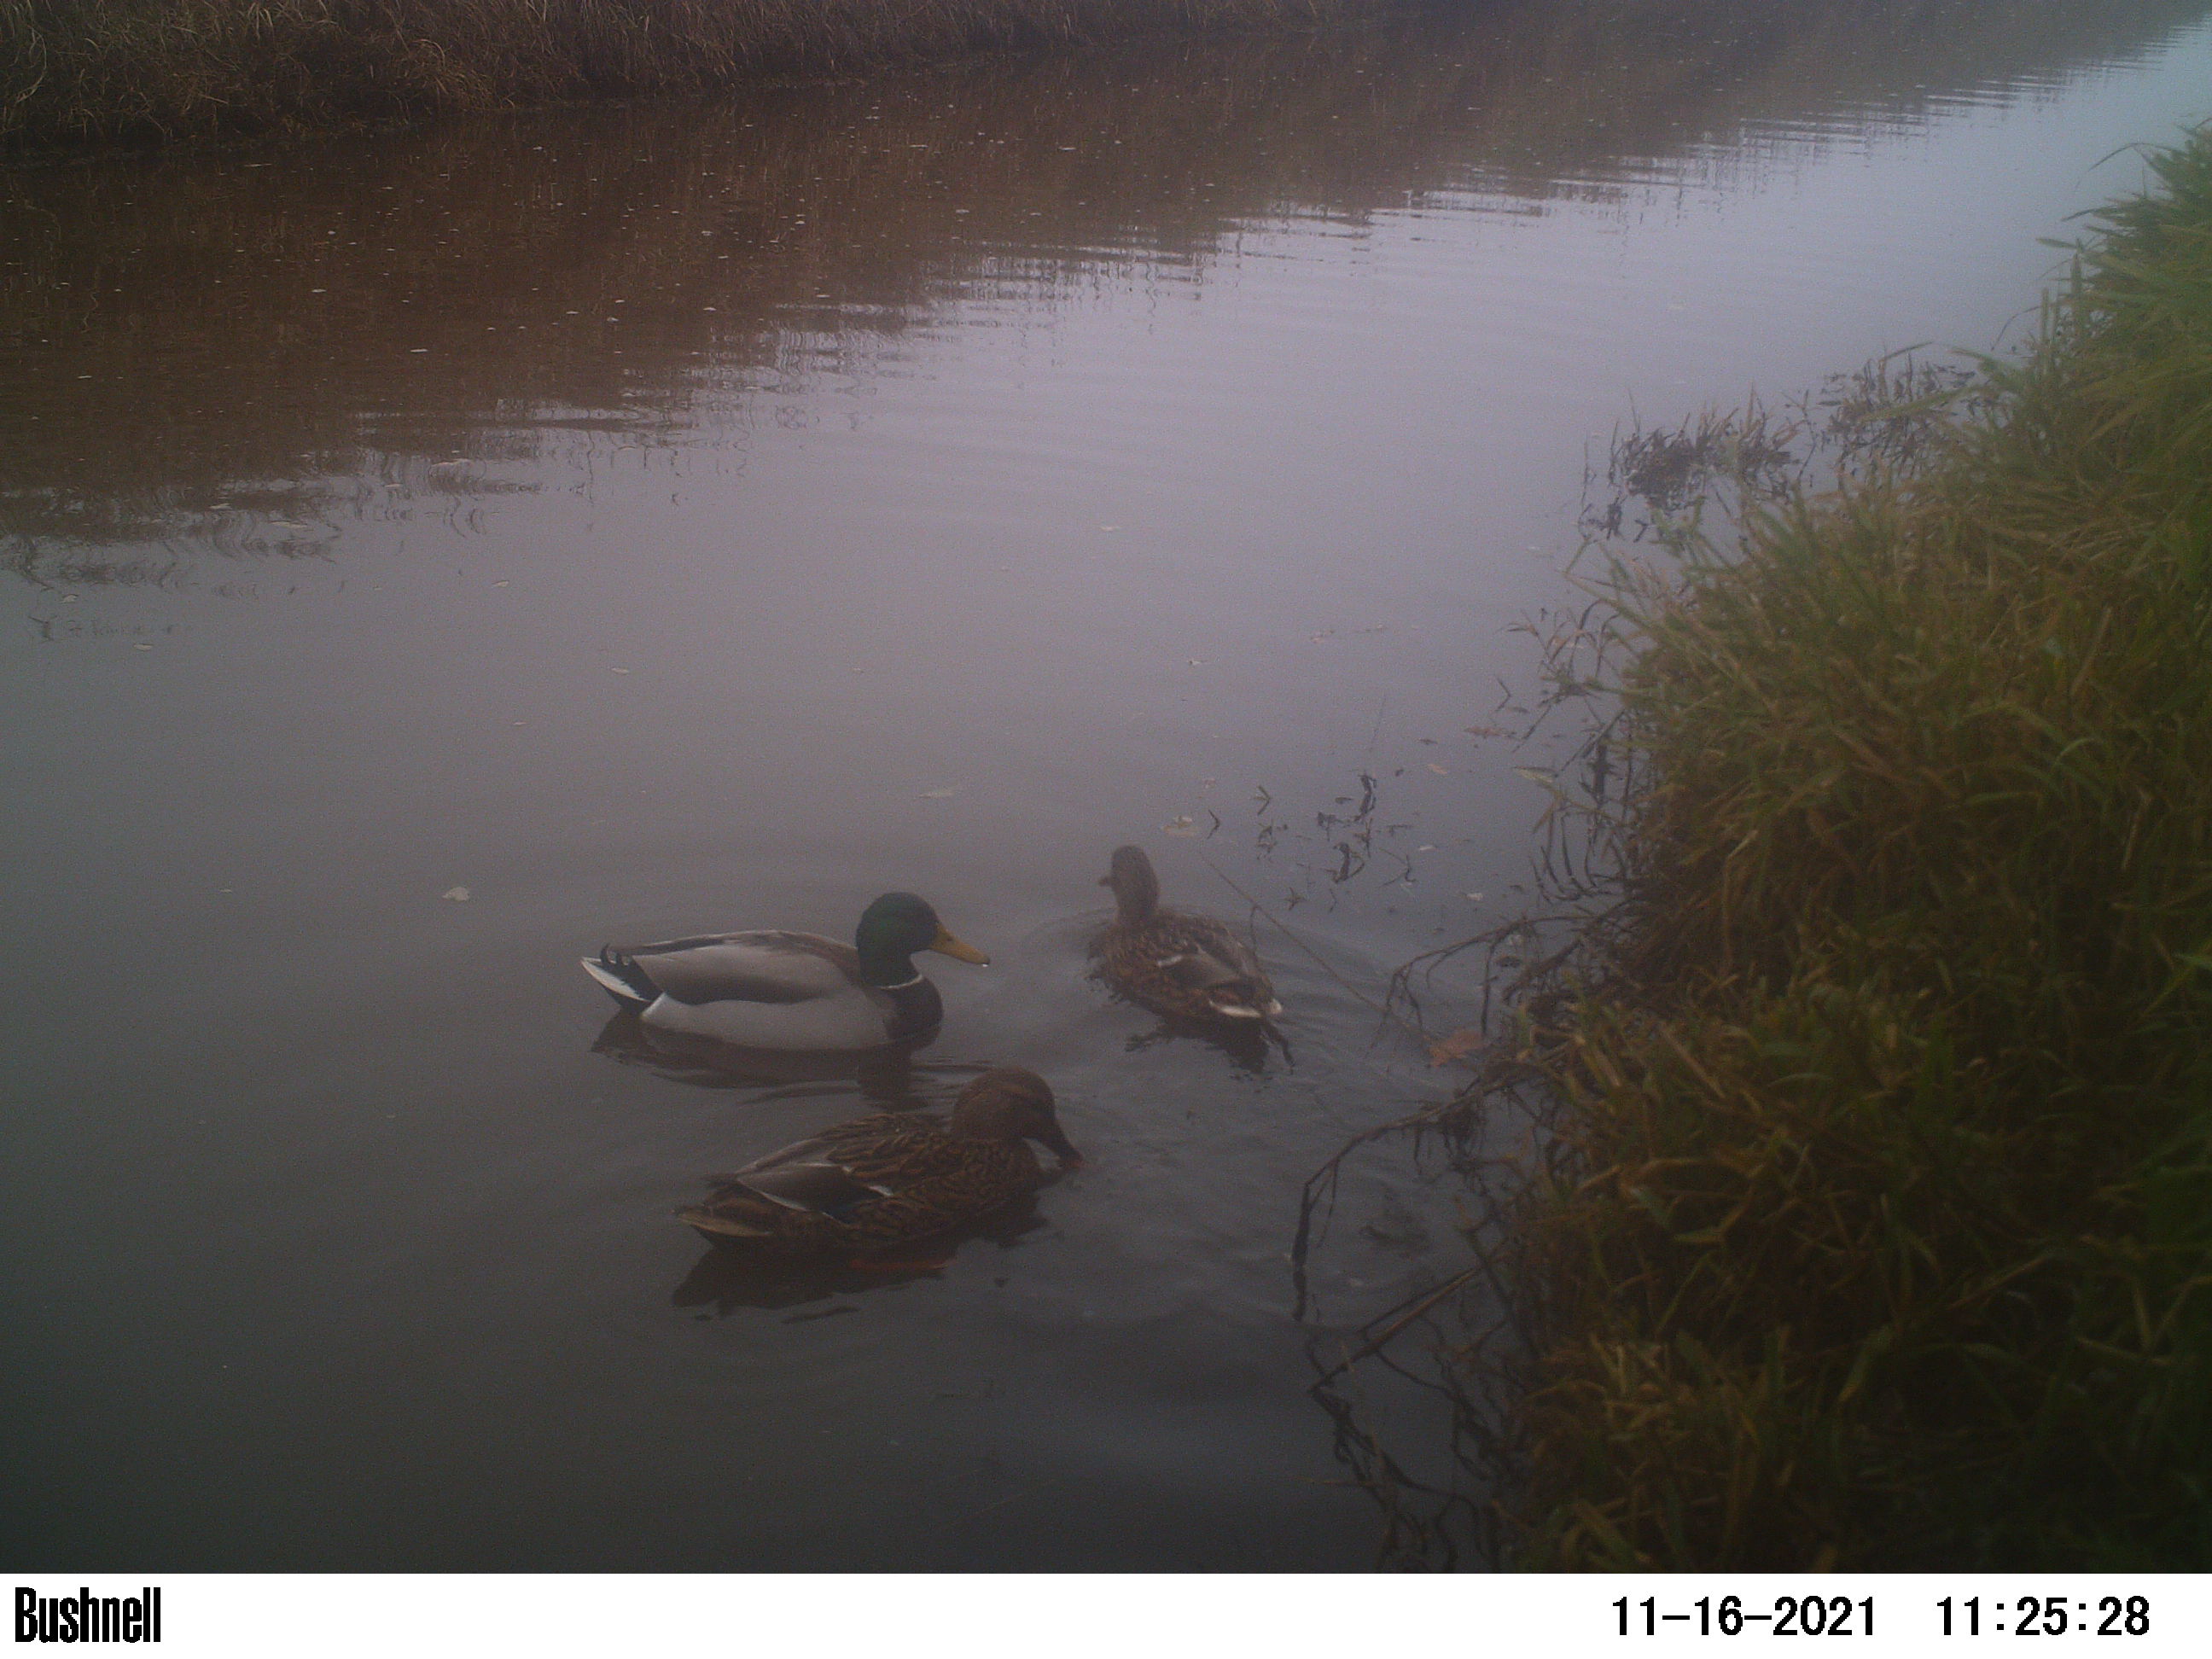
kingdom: Animalia
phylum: Chordata
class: Aves
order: Anseriformes
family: Anatidae
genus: Anas
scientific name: Anas
